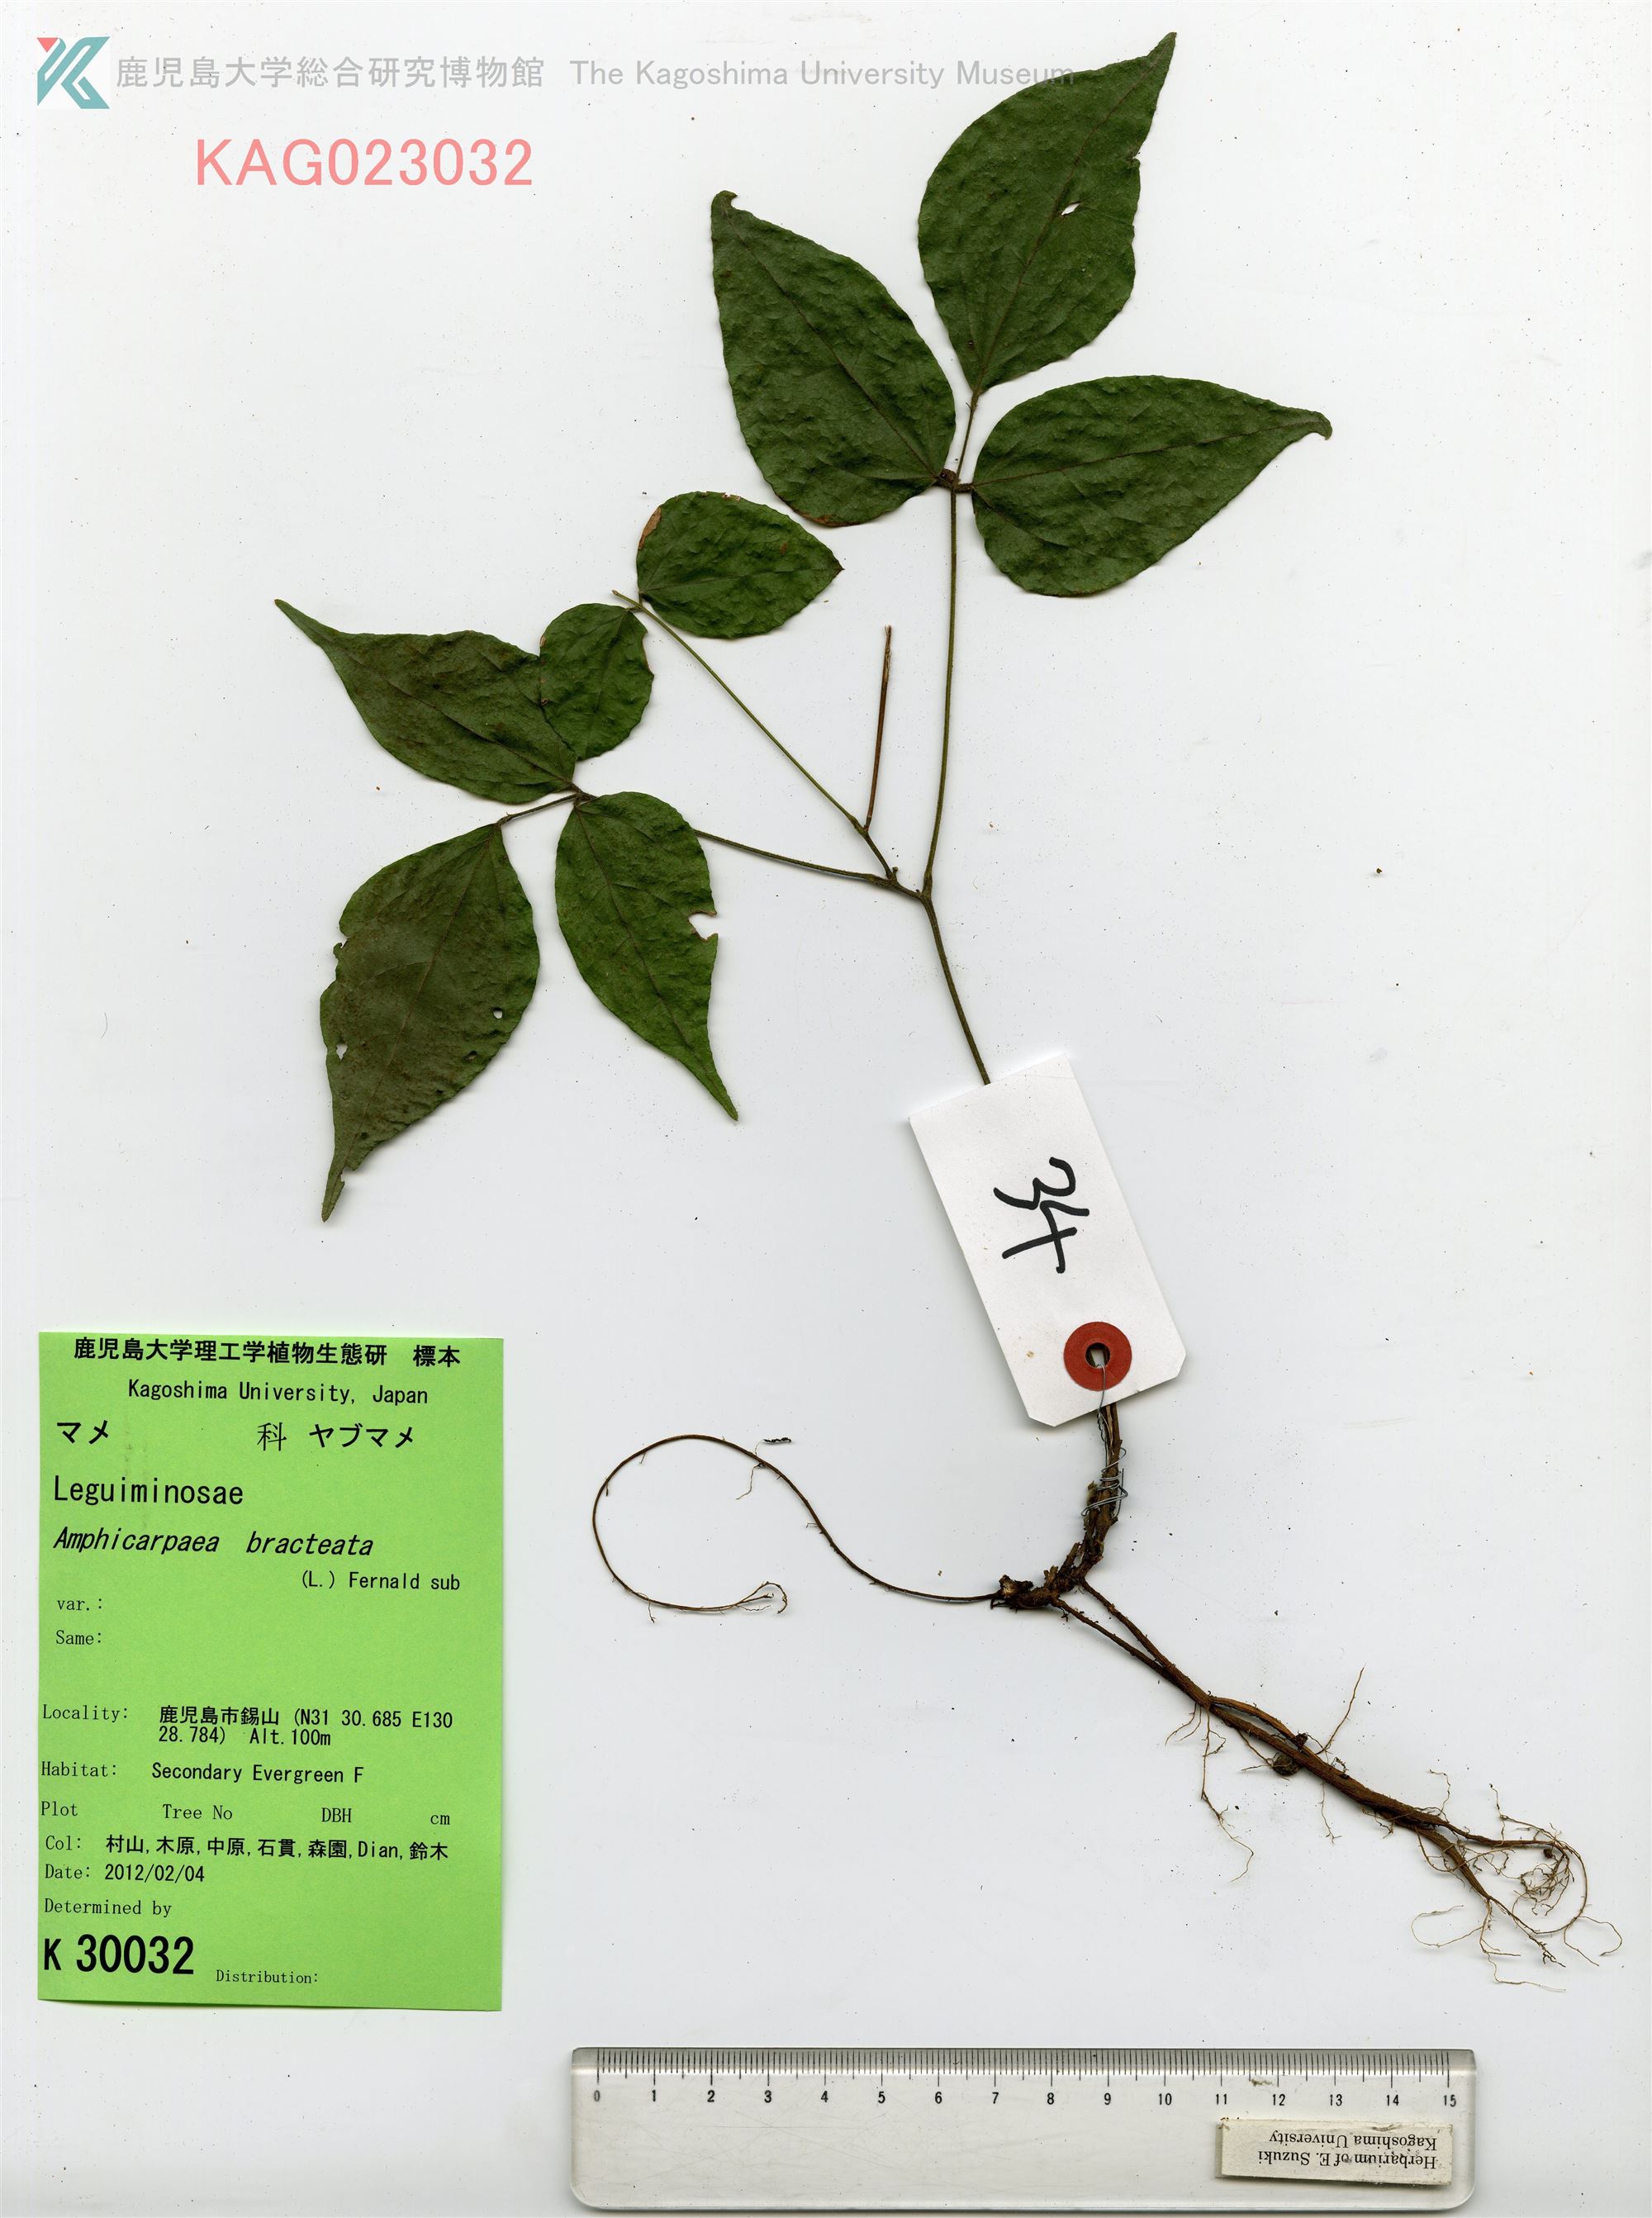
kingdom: Plantae
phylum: Tracheophyta
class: Magnoliopsida
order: Fabales
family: Fabaceae
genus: Amphicarpaea
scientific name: Amphicarpaea edgeworthii
